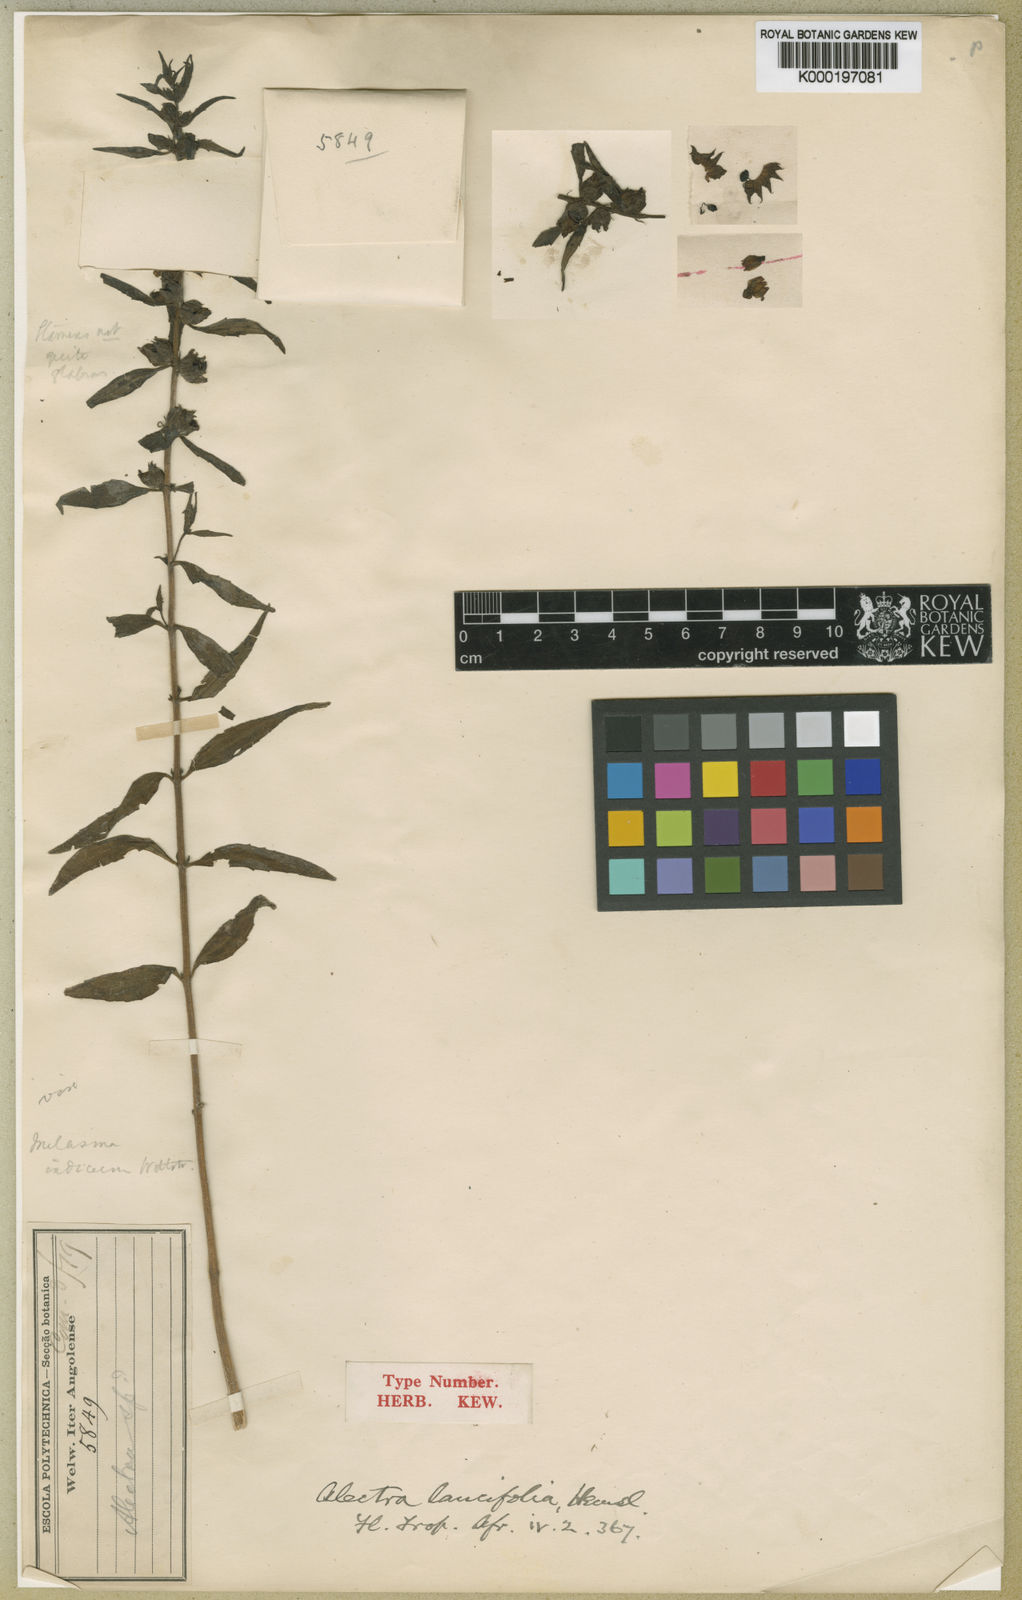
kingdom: Plantae
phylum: Tracheophyta
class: Magnoliopsida
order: Lamiales
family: Orobanchaceae
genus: Alectra
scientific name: Alectra lancifolia
